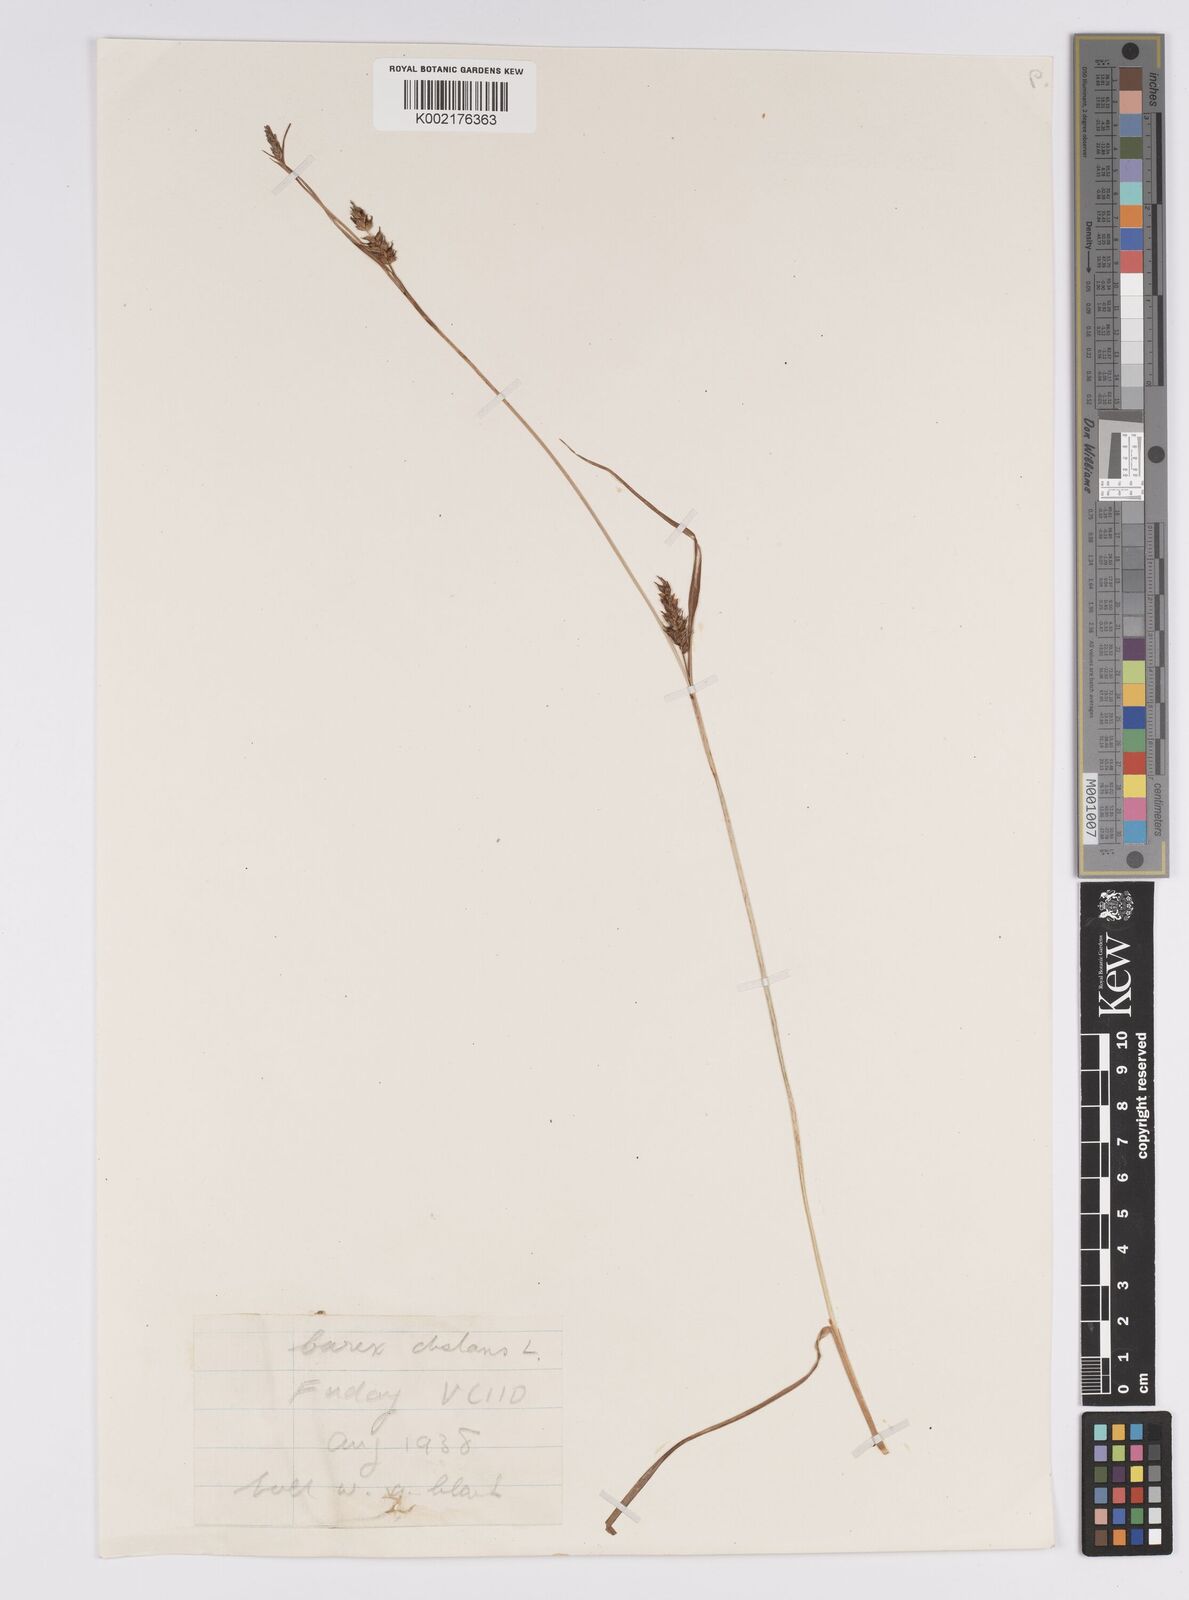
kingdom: Plantae
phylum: Tracheophyta
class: Liliopsida
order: Poales
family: Cyperaceae
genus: Carex
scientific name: Carex distans
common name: Distant sedge
